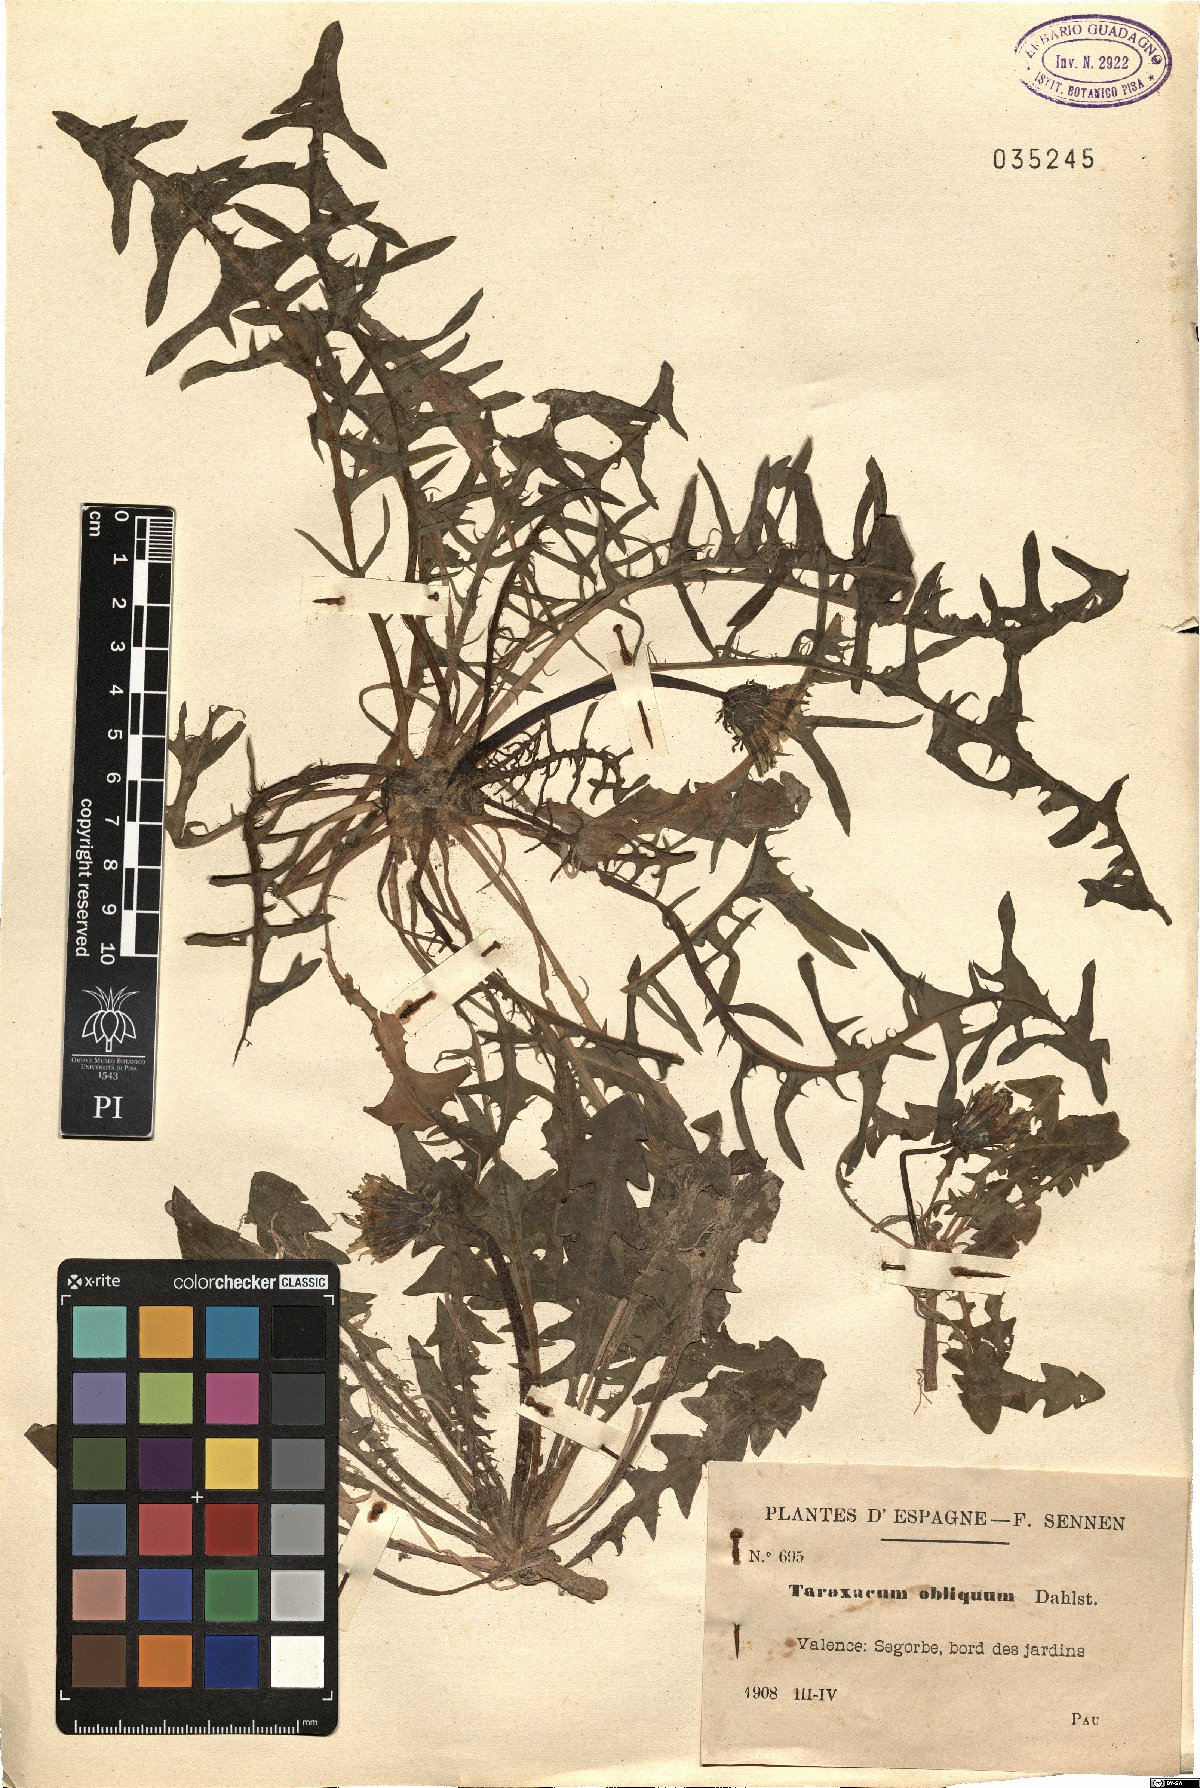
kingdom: Plantae
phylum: Tracheophyta
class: Magnoliopsida
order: Asterales
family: Asteraceae
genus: Taraxacum
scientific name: Taraxacum obliquum
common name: Many-lobed dandelion
